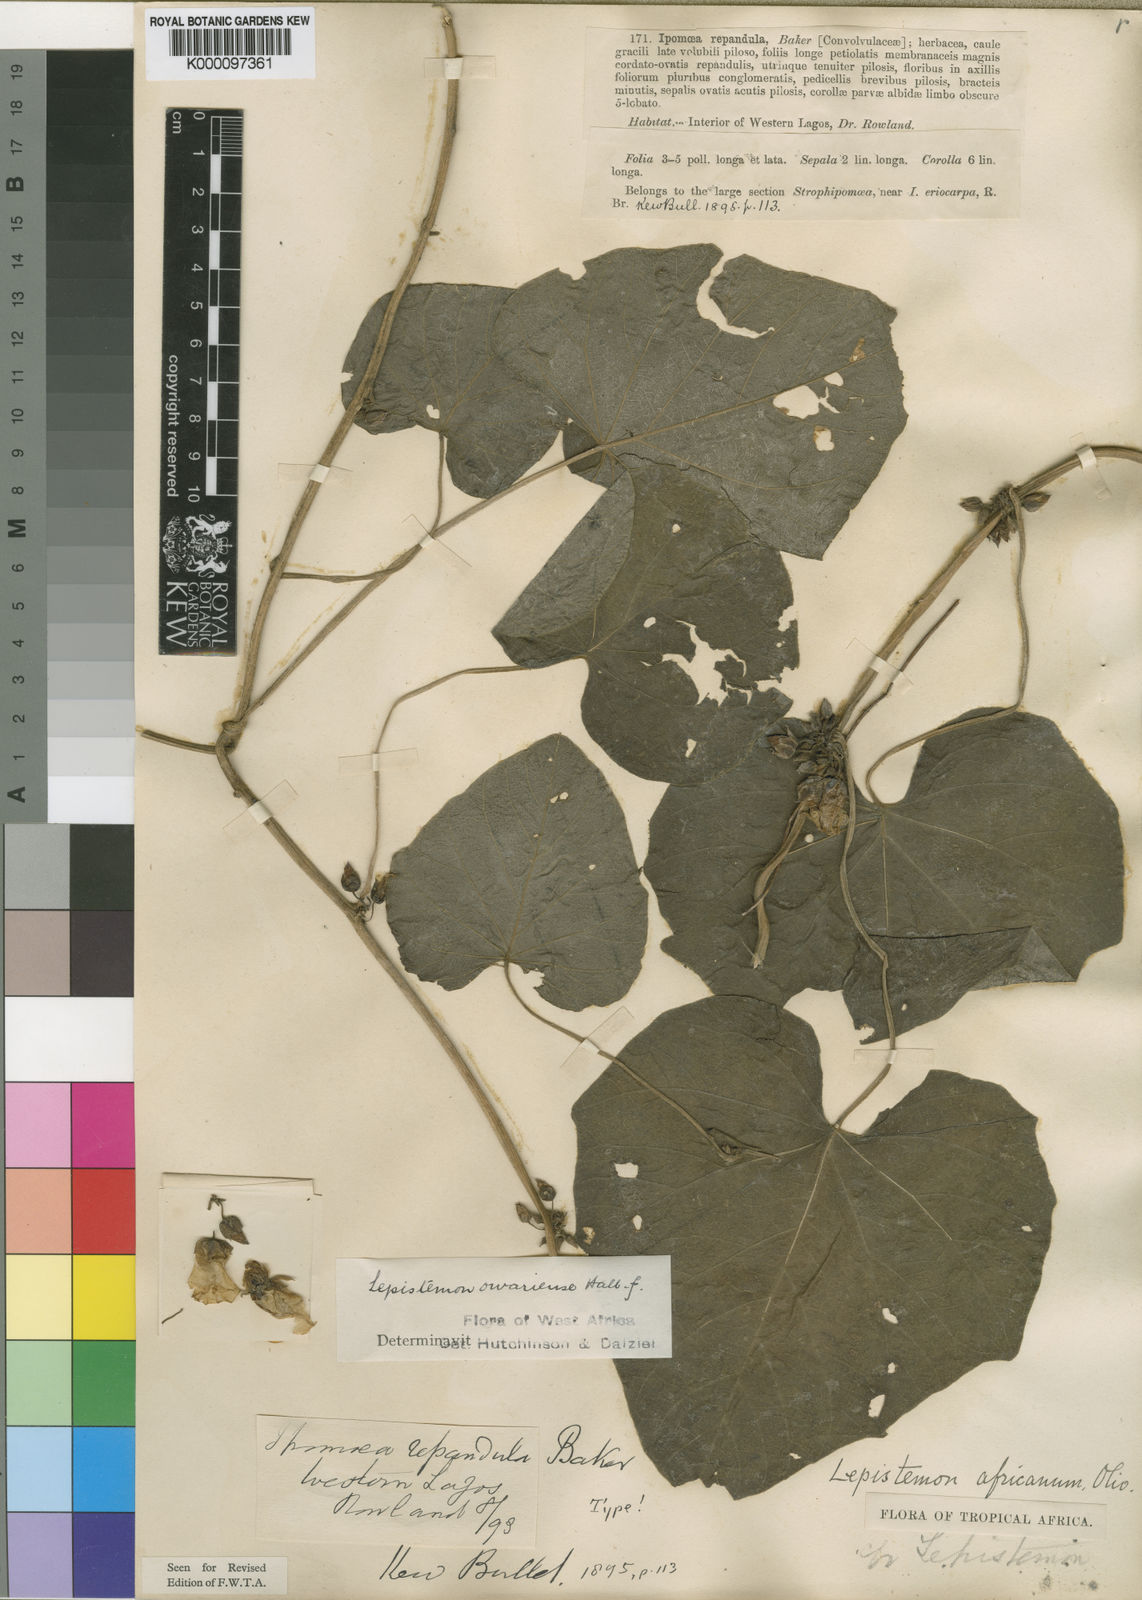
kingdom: Plantae
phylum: Tracheophyta
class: Magnoliopsida
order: Solanales
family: Convolvulaceae
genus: Lepistemon
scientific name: Lepistemon
